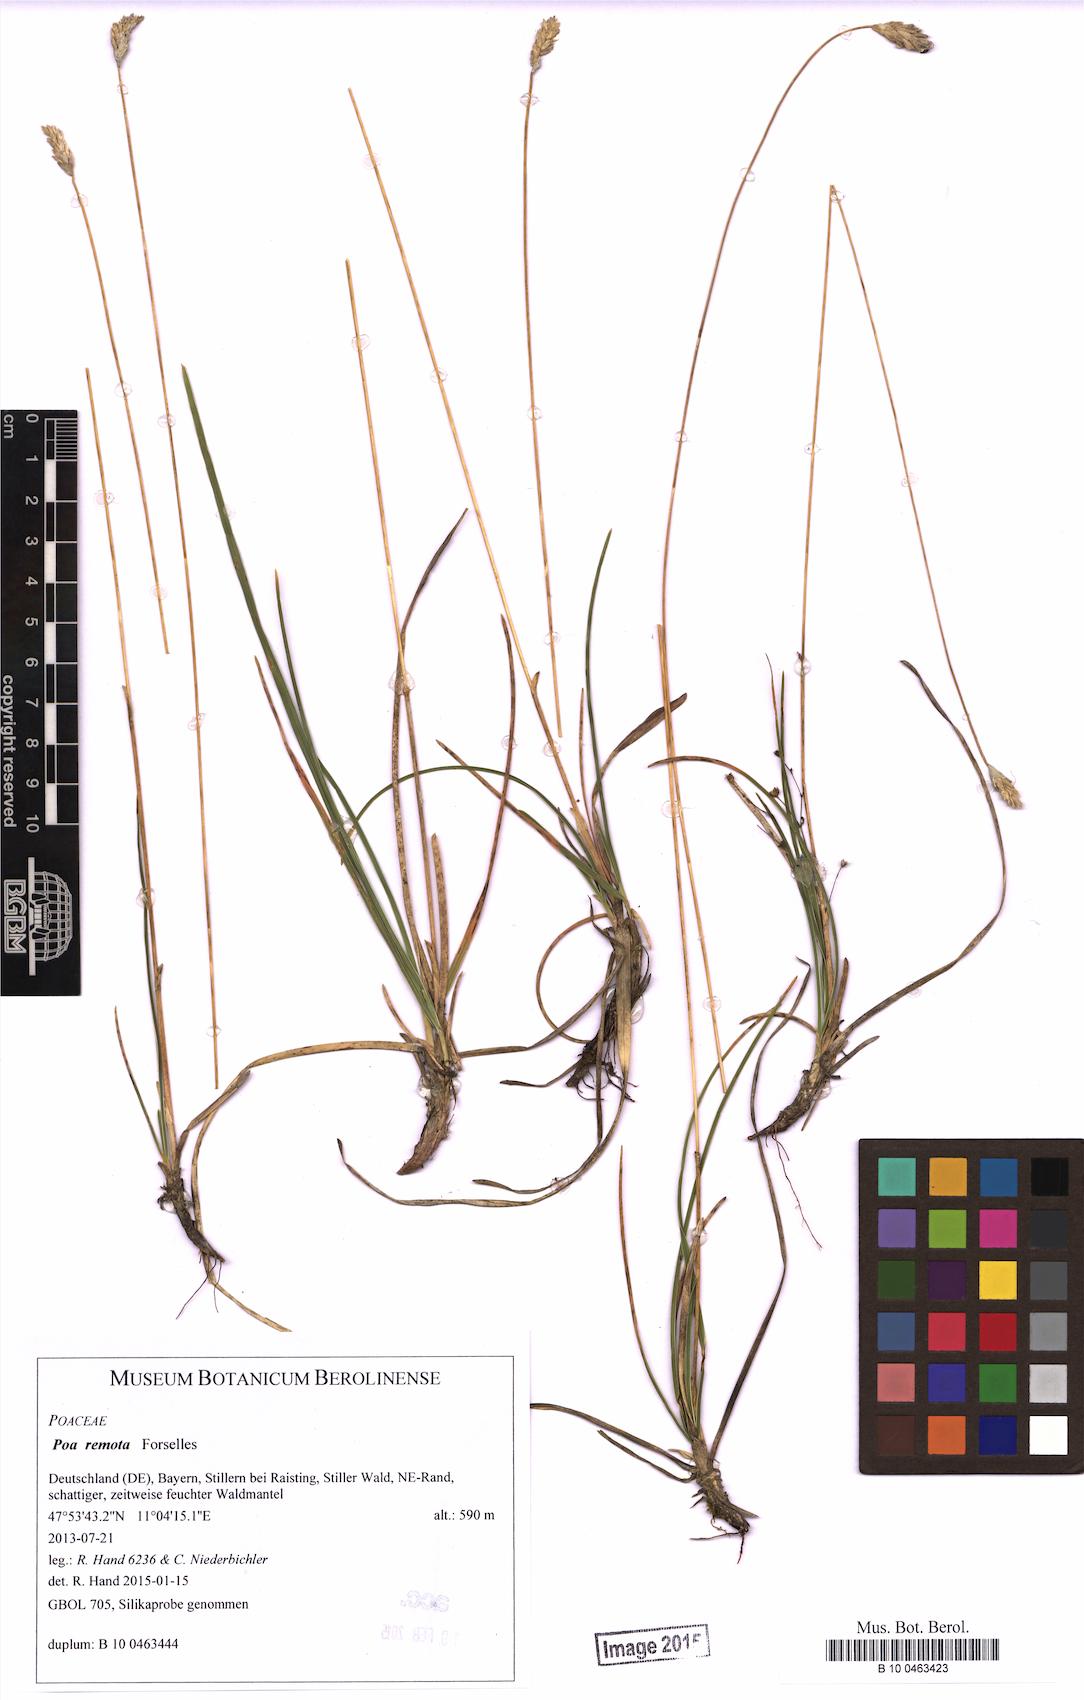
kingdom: Plantae
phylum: Tracheophyta
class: Liliopsida
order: Poales
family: Poaceae
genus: Sesleria
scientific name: Sesleria caerulea
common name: Blue moor-grass
